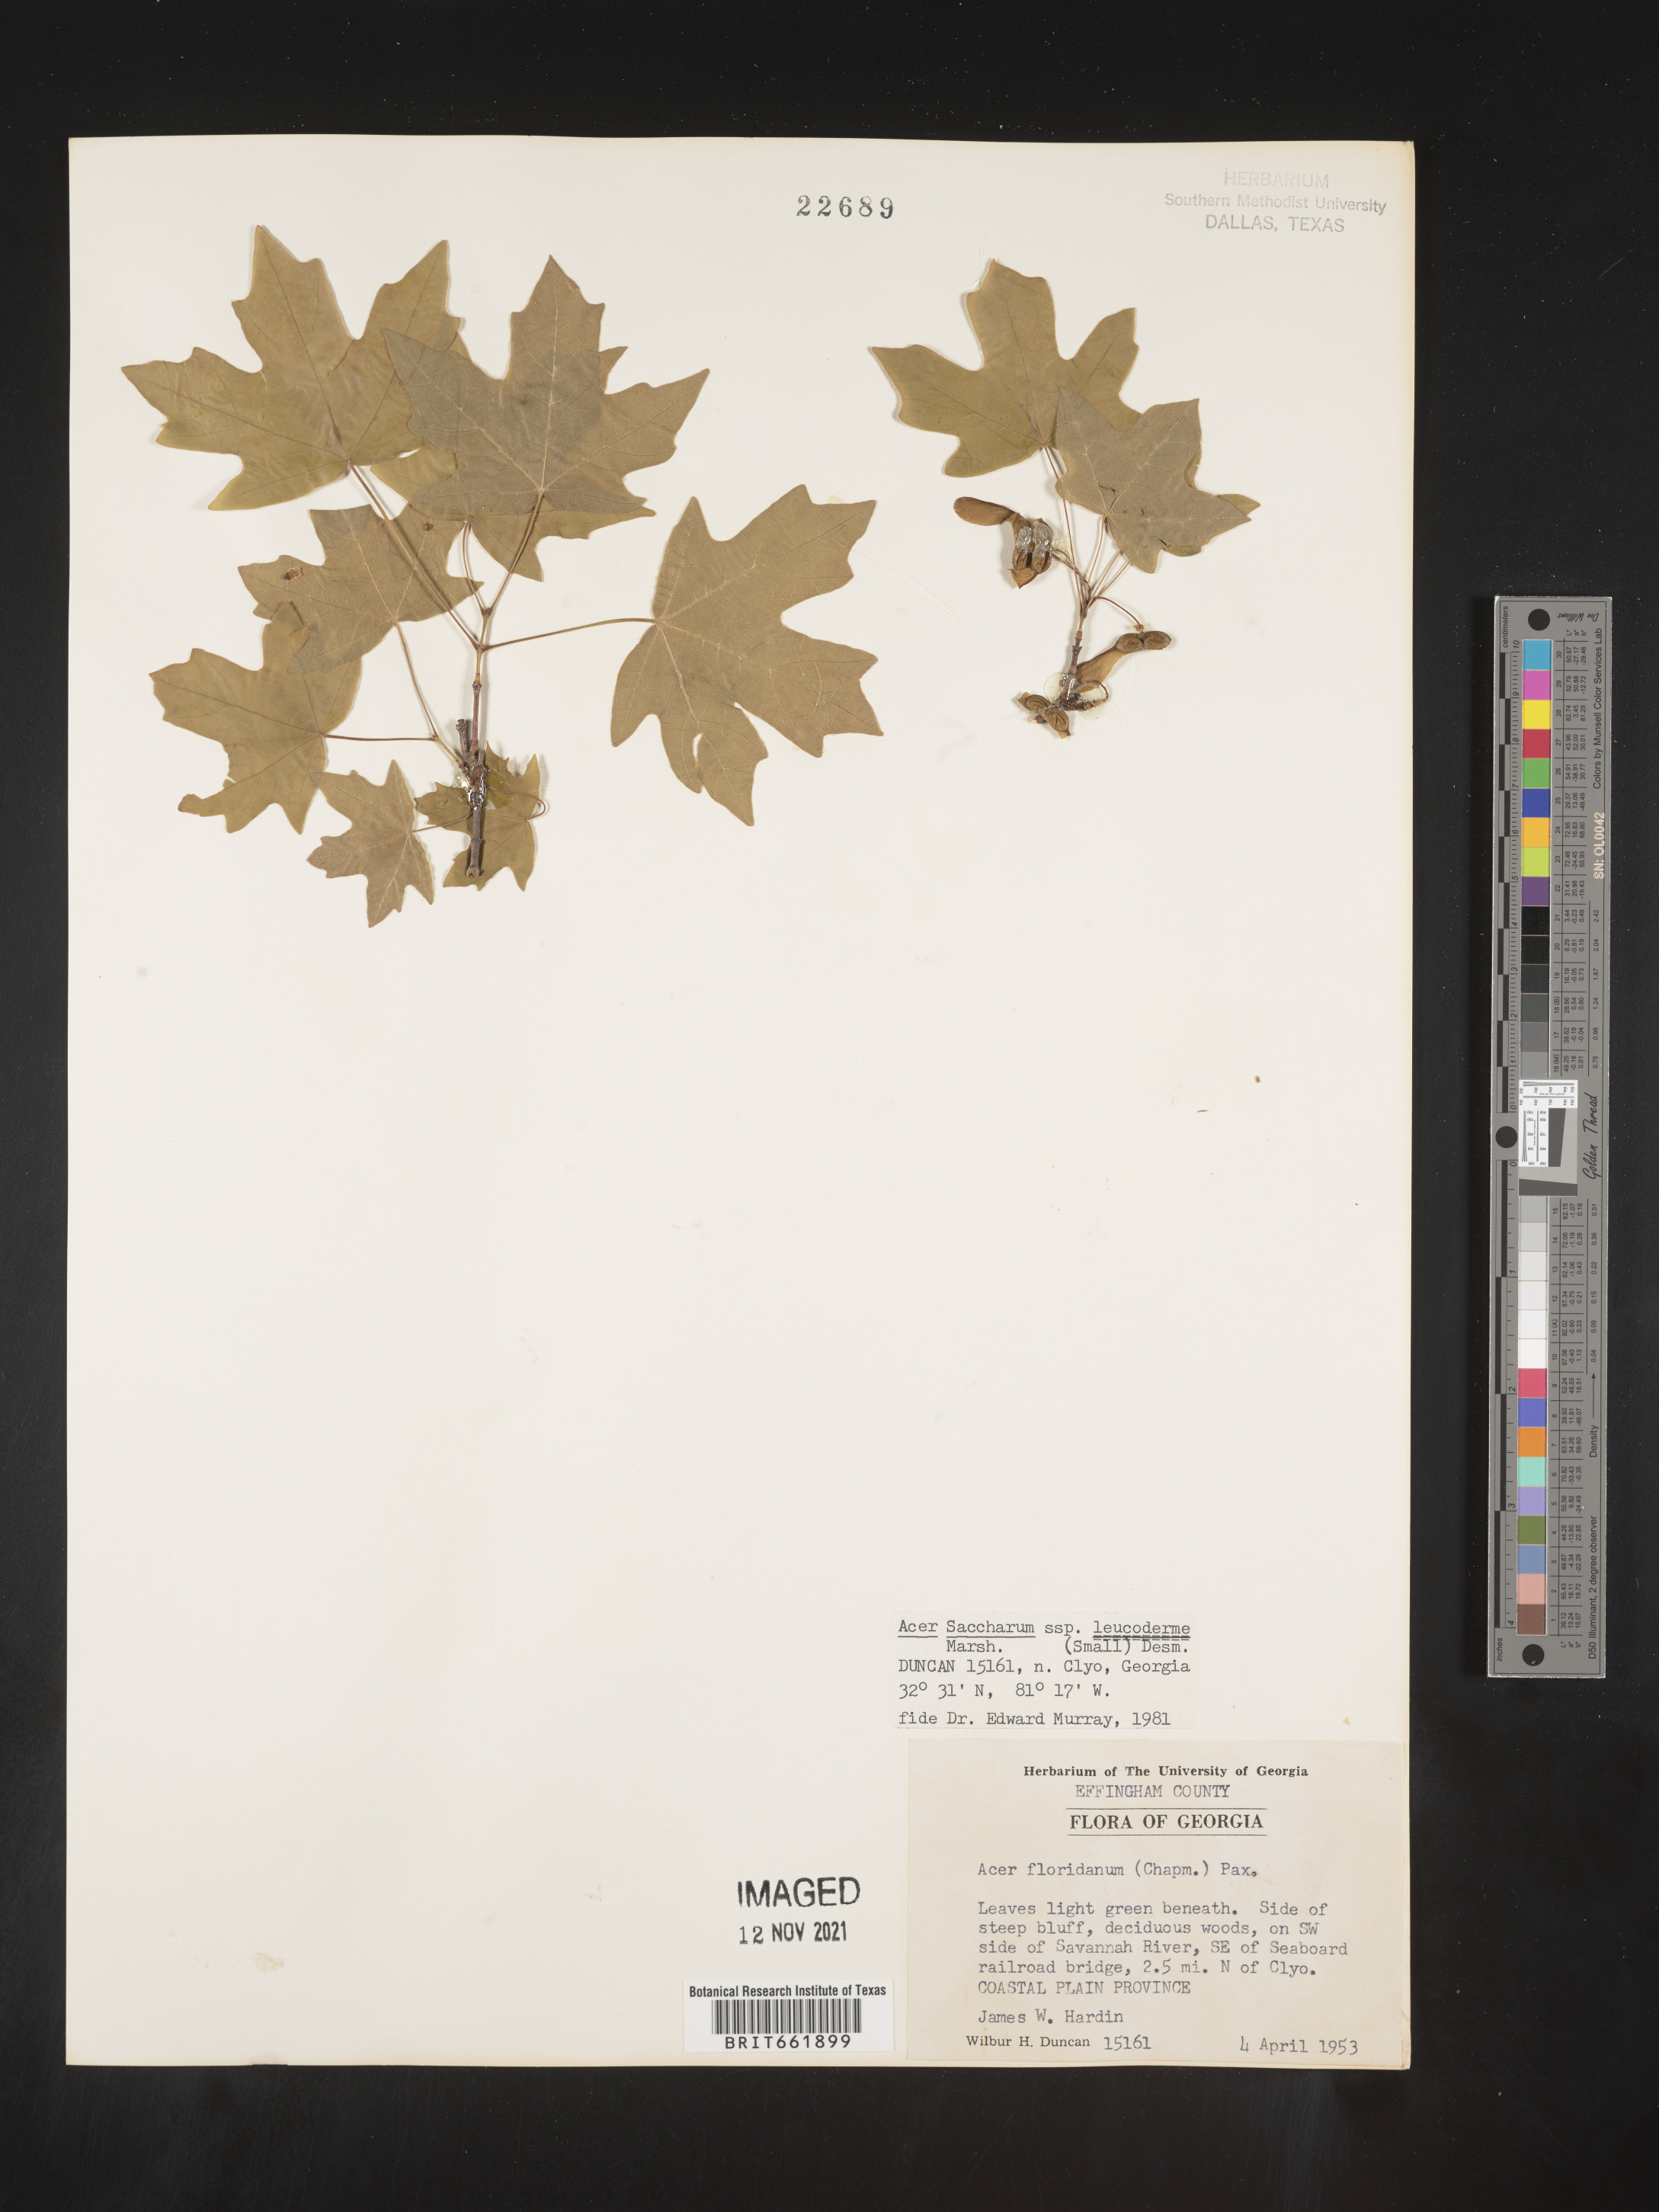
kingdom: Plantae
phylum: Tracheophyta
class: Magnoliopsida
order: Sapindales
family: Sapindaceae
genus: Acer
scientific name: Acer leucoderme
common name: Chalk maple
